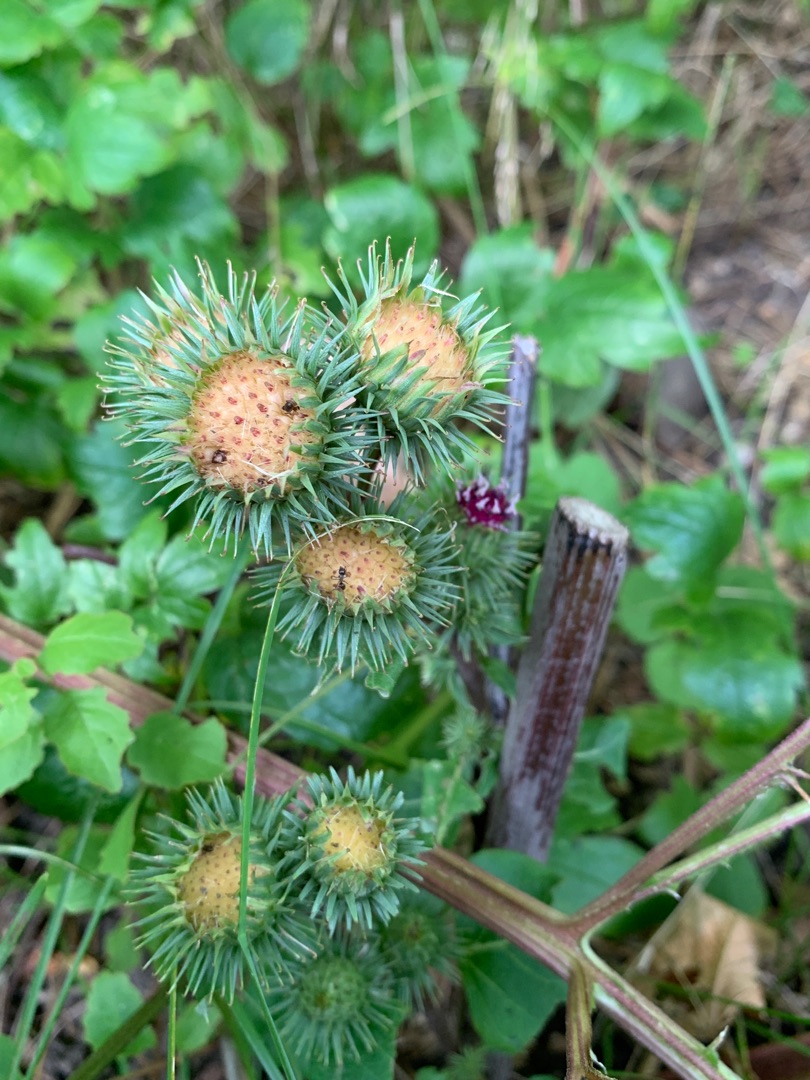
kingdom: Plantae
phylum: Tracheophyta
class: Magnoliopsida
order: Asterales
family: Asteraceae
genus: Arctium
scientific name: Arctium lappa
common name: Glat burre
